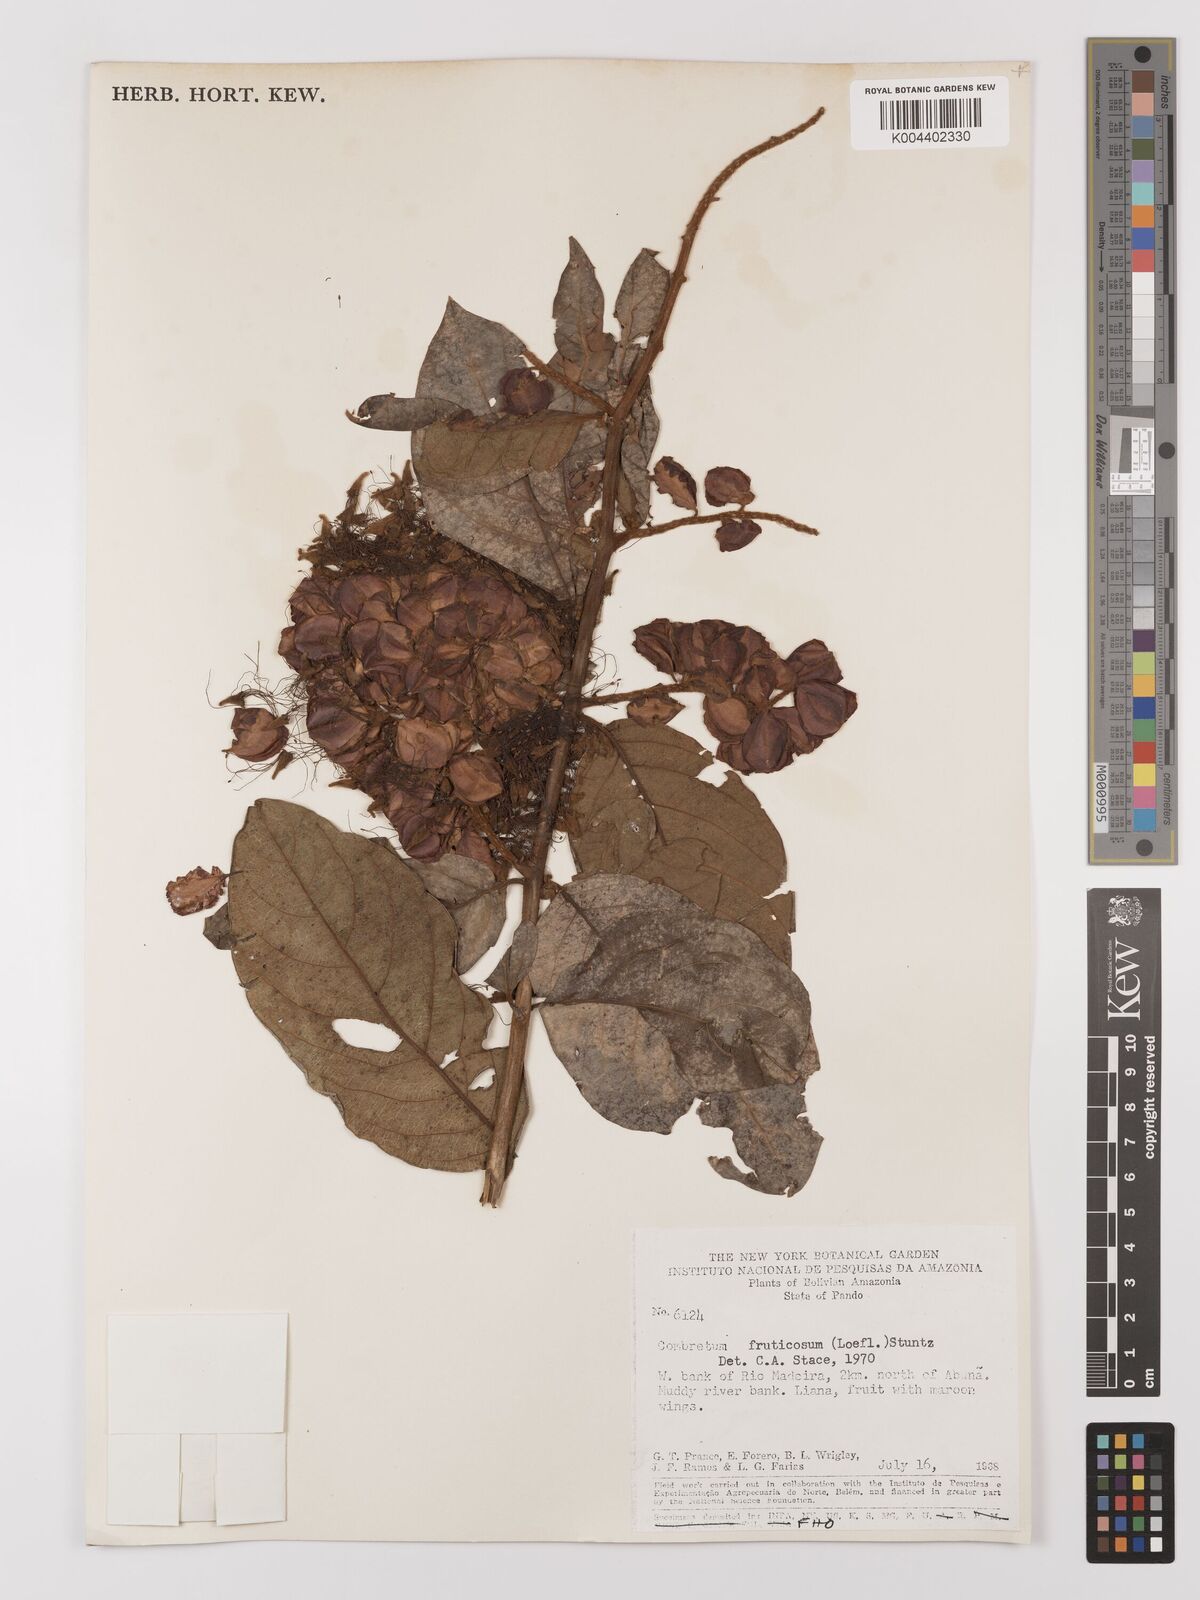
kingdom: Plantae
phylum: Tracheophyta
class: Magnoliopsida
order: Myrtales
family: Combretaceae
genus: Combretum
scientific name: Combretum fruticosum
